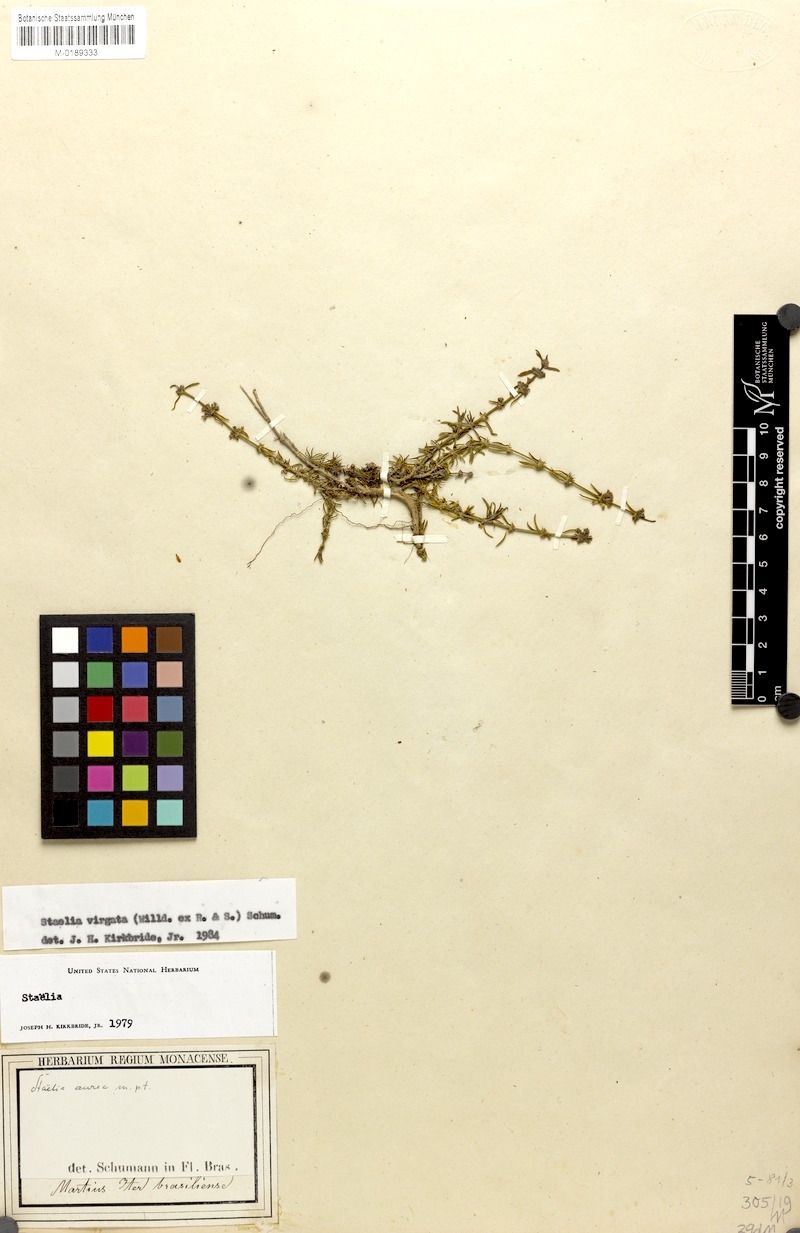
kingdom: Plantae
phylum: Tracheophyta
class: Magnoliopsida
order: Gentianales
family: Rubiaceae
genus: Staelia
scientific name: Staelia virgata
